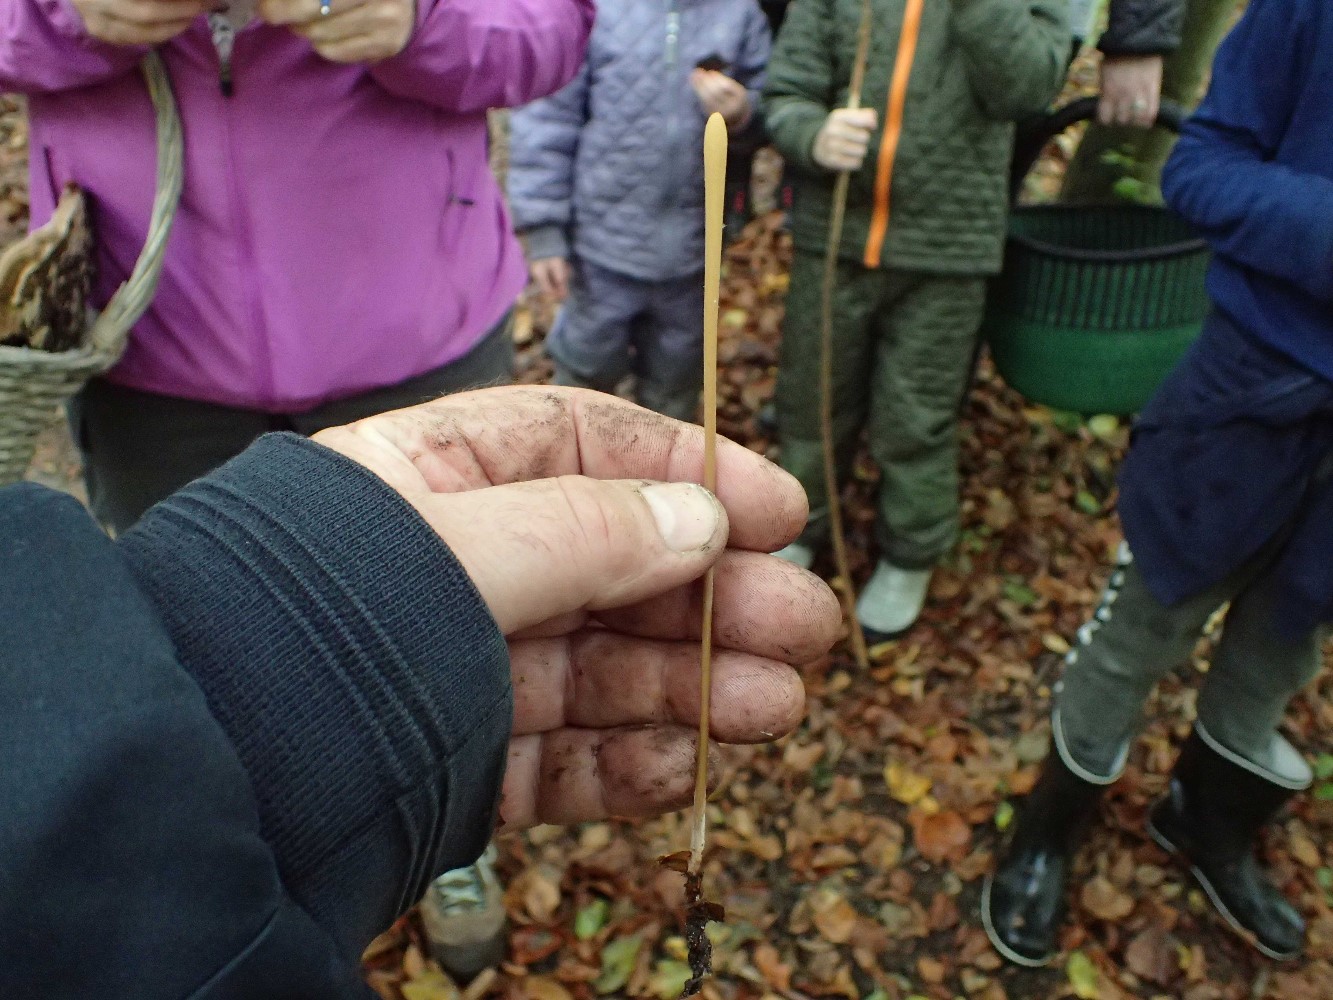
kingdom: Fungi
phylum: Basidiomycota
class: Agaricomycetes
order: Agaricales
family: Typhulaceae
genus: Typhula
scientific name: Typhula fistulosa
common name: pibet rørkølle
